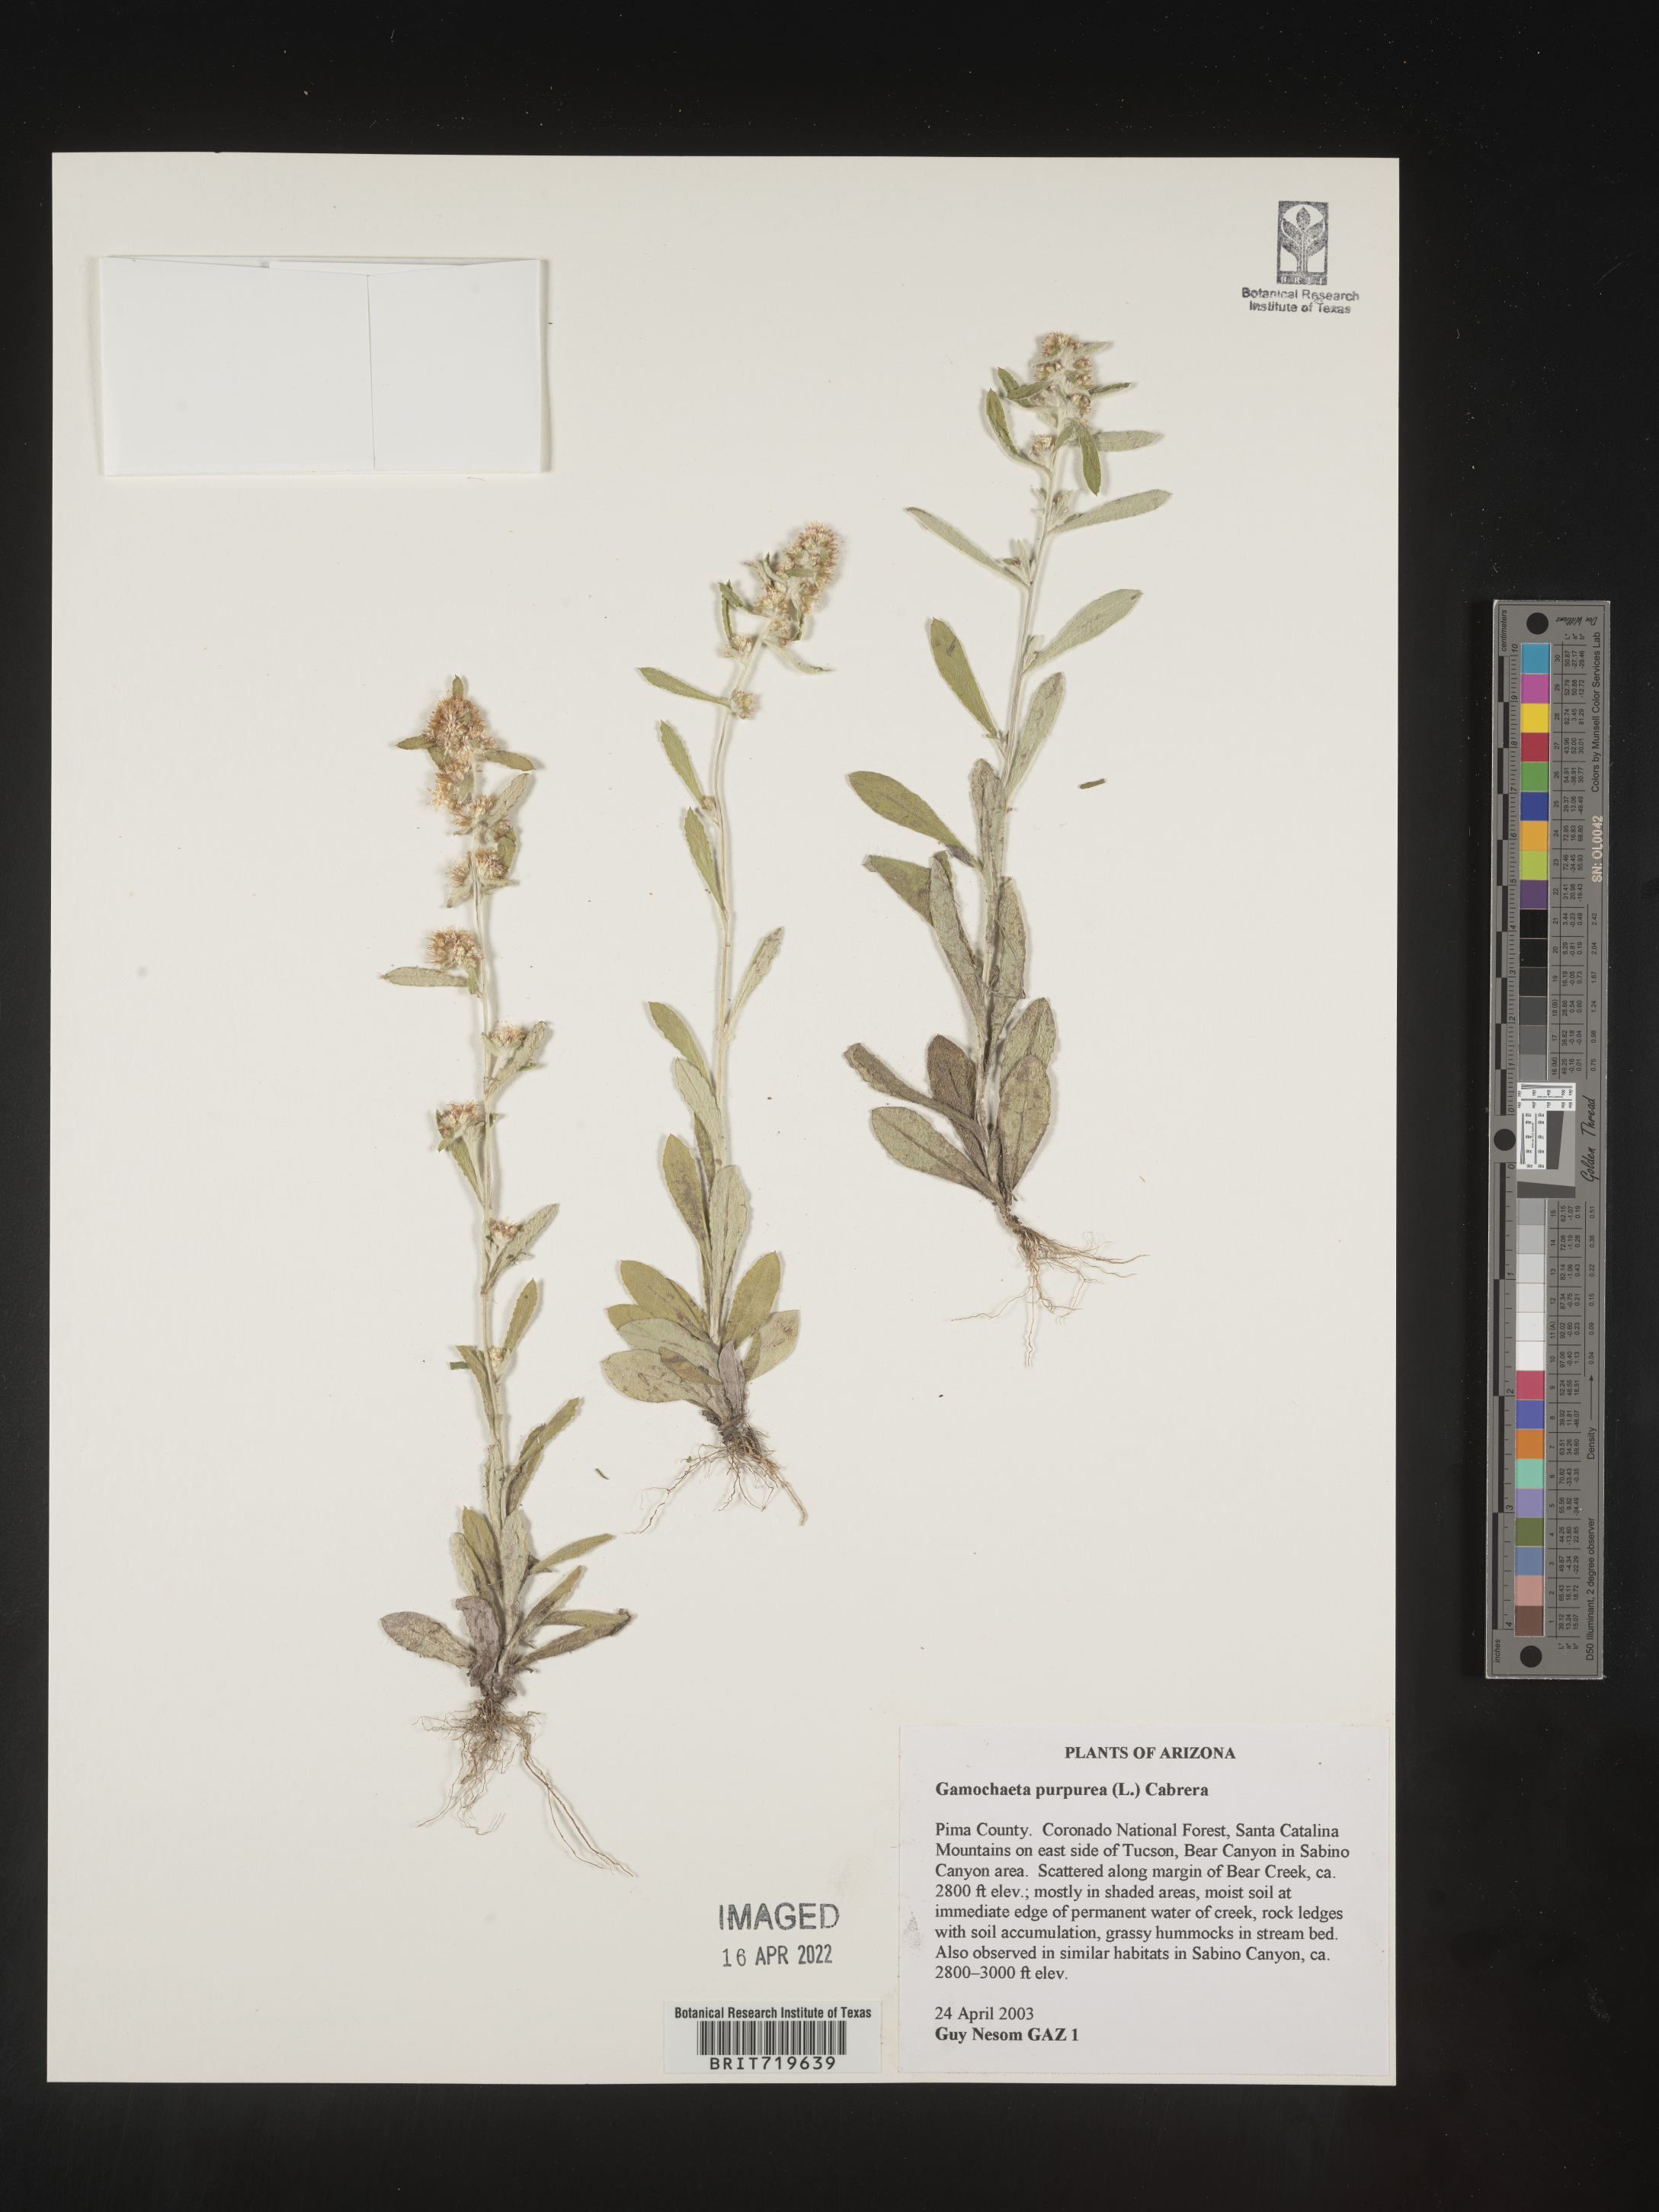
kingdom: Plantae
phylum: Tracheophyta
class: Magnoliopsida
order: Asterales
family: Asteraceae
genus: Gamochaeta
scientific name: Gamochaeta purpurea
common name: Purple cudweed
